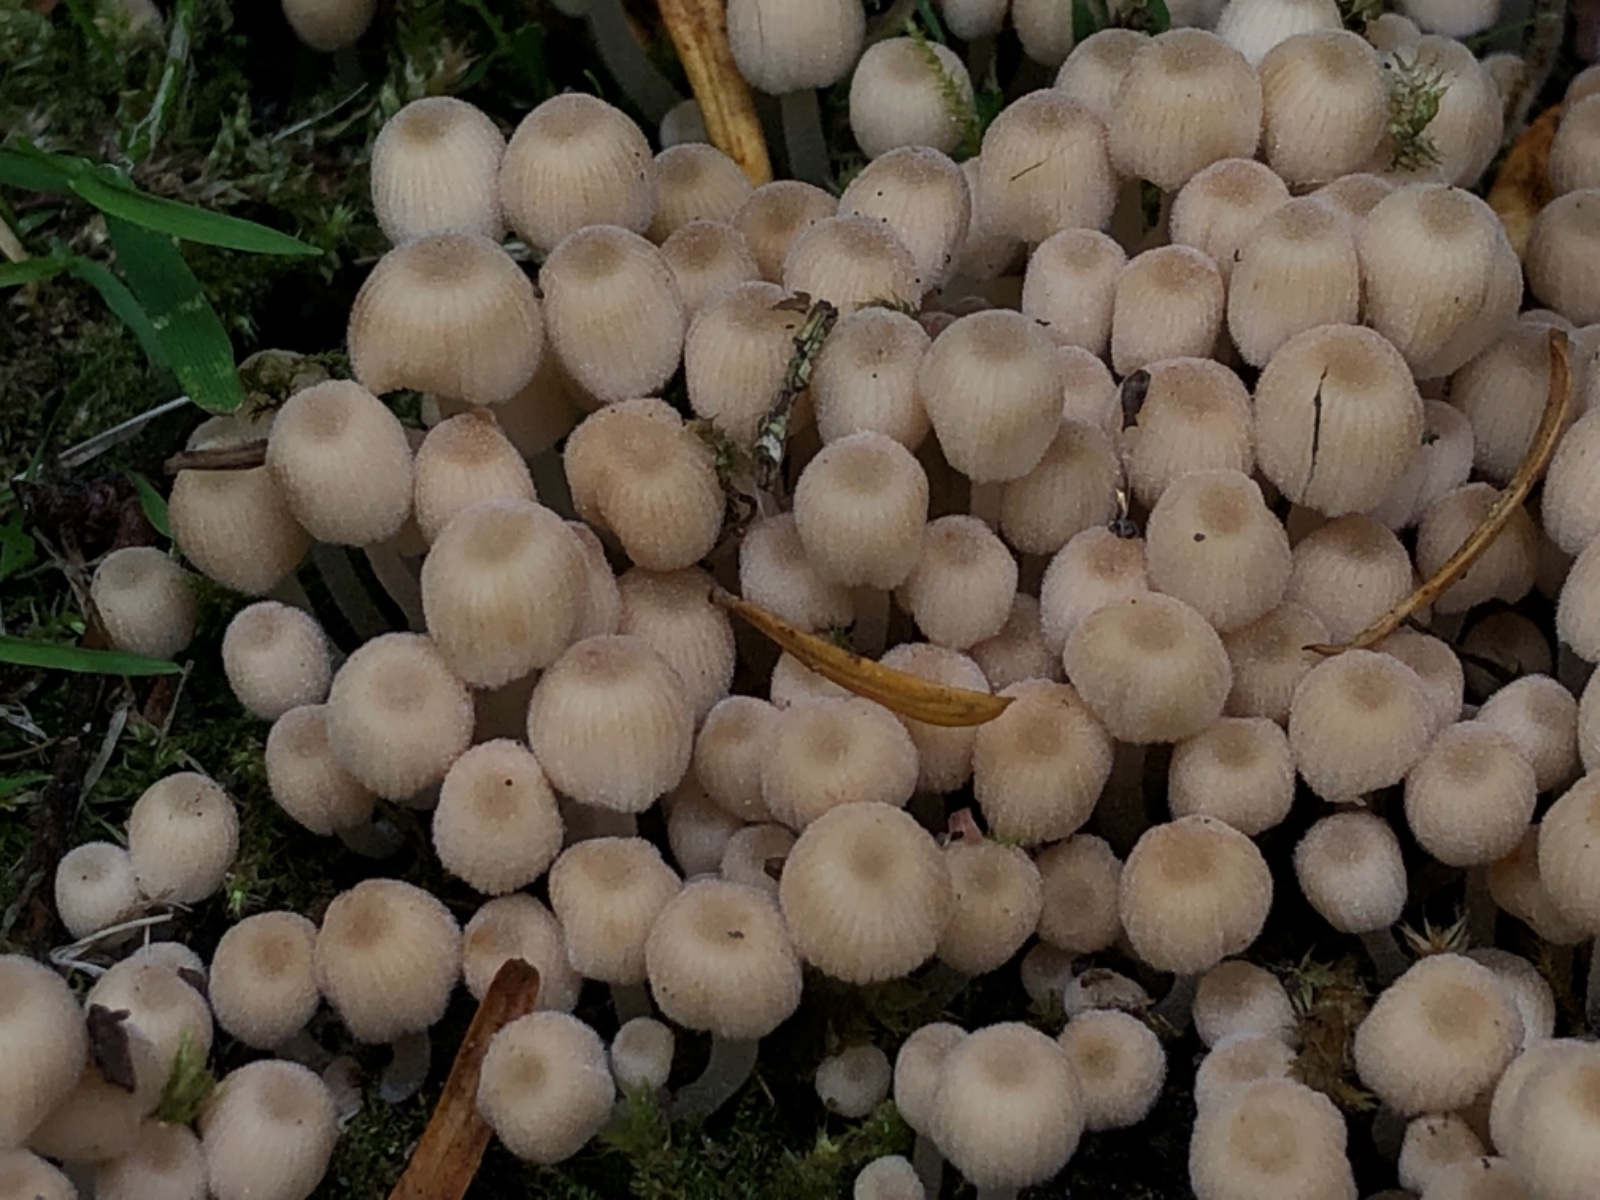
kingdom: Fungi
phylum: Basidiomycota
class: Agaricomycetes
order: Agaricales
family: Psathyrellaceae
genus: Coprinellus
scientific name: Coprinellus disseminatus
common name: bredsået blækhat
